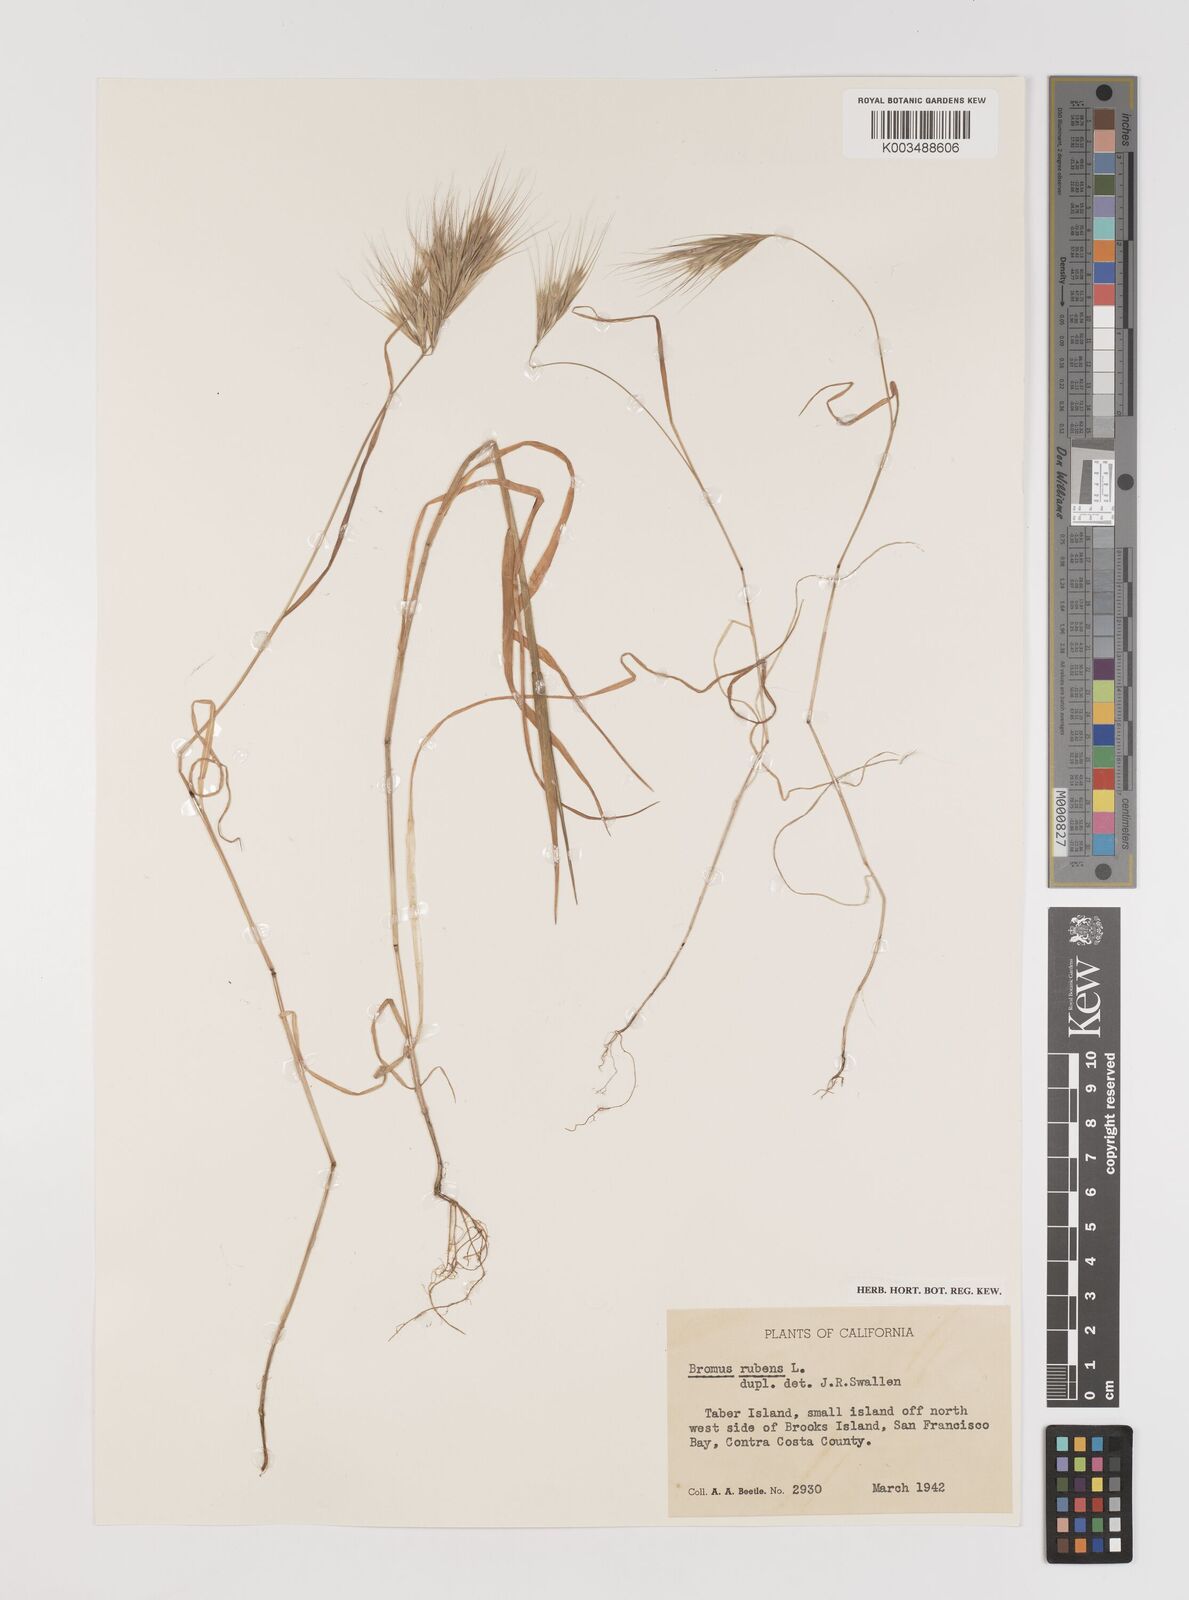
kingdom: Plantae
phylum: Tracheophyta
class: Liliopsida
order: Poales
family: Poaceae
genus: Bromus
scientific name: Bromus rubens
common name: Red brome
